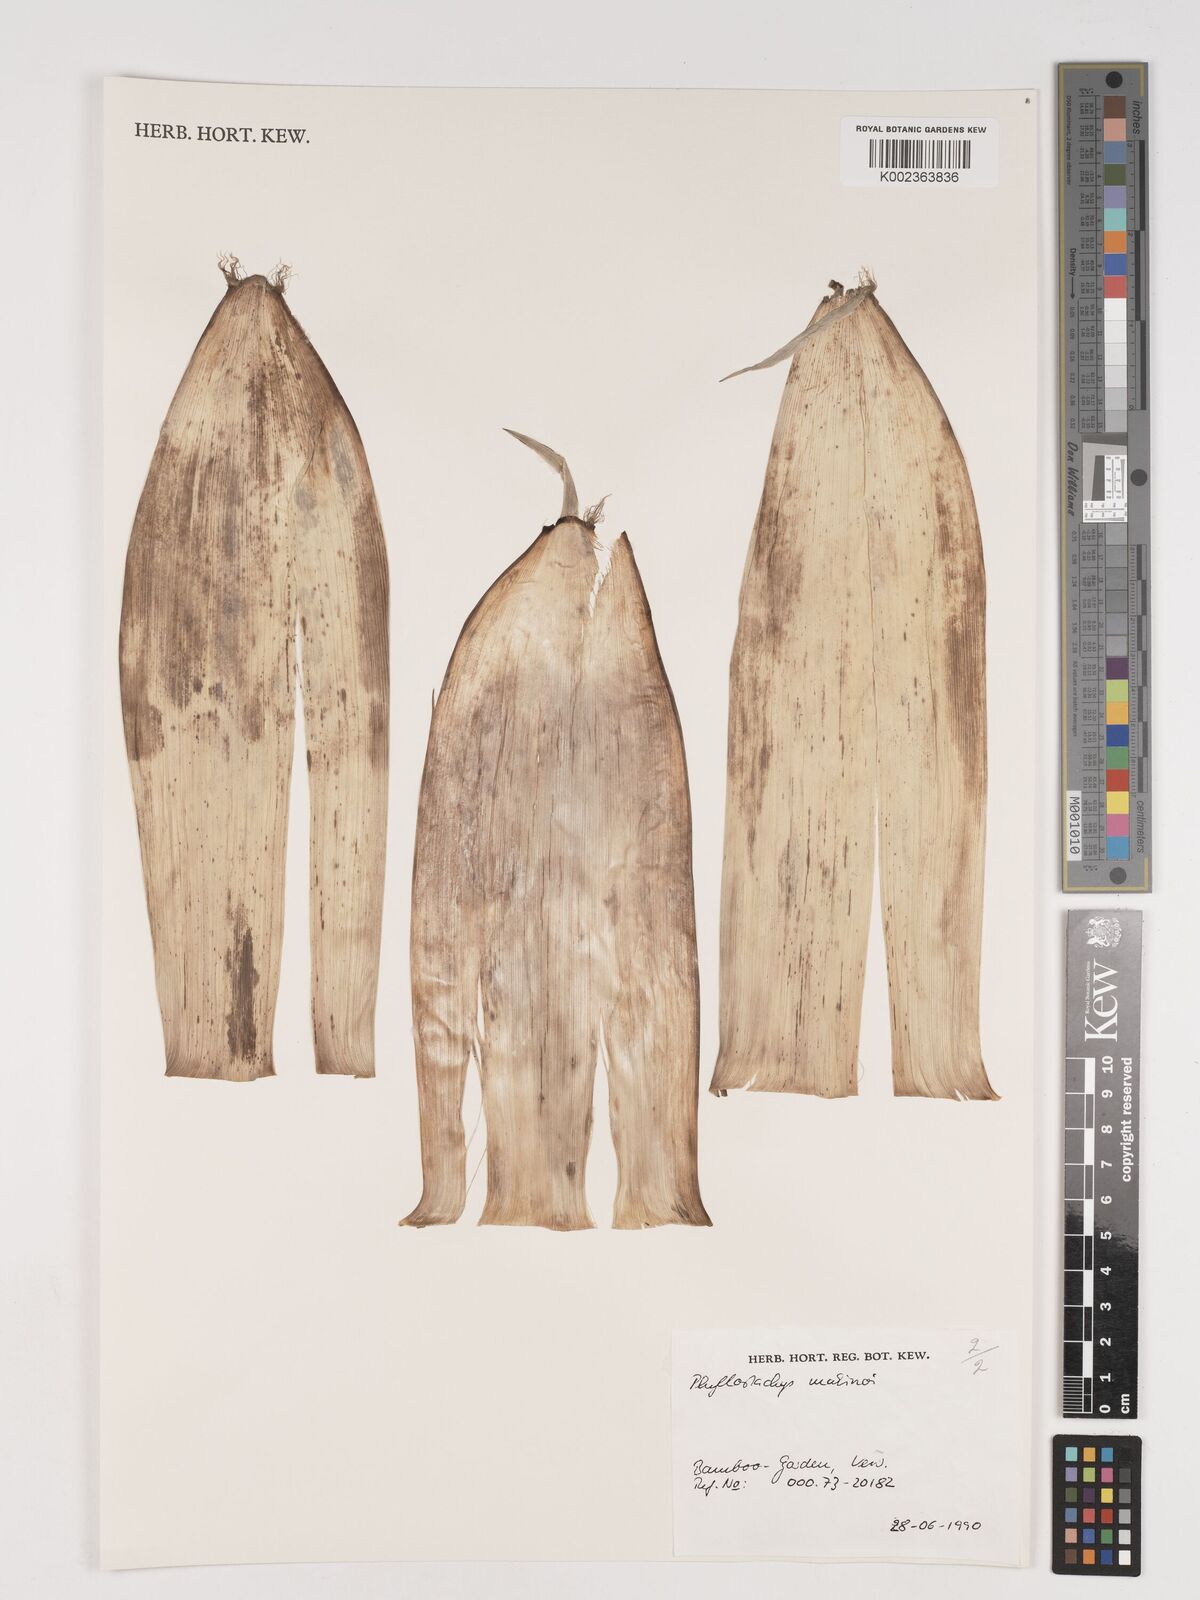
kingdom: Plantae
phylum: Tracheophyta
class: Liliopsida
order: Poales
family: Poaceae
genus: Phyllostachys
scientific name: Phyllostachys dulcis
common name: Sweetshoot bamboo
